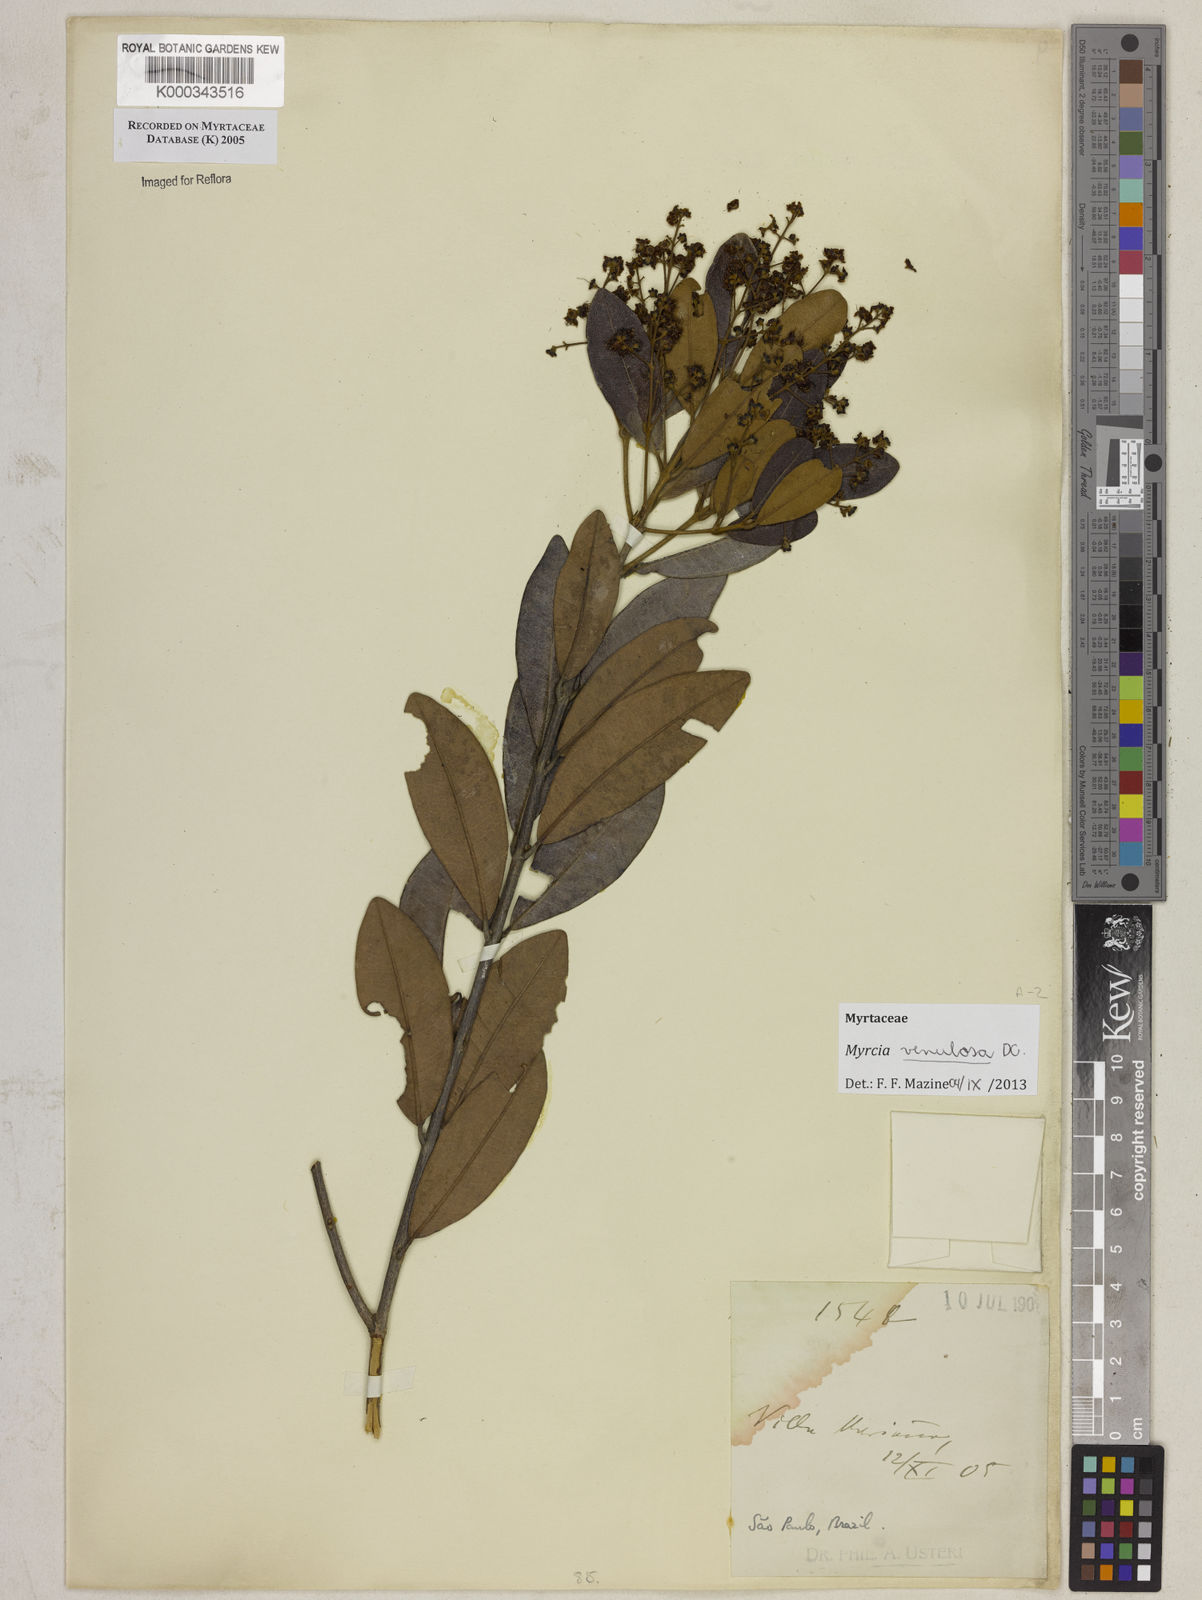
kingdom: Plantae
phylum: Tracheophyta
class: Magnoliopsida
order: Myrtales
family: Myrtaceae
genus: Myrcia
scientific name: Myrcia venulosa
